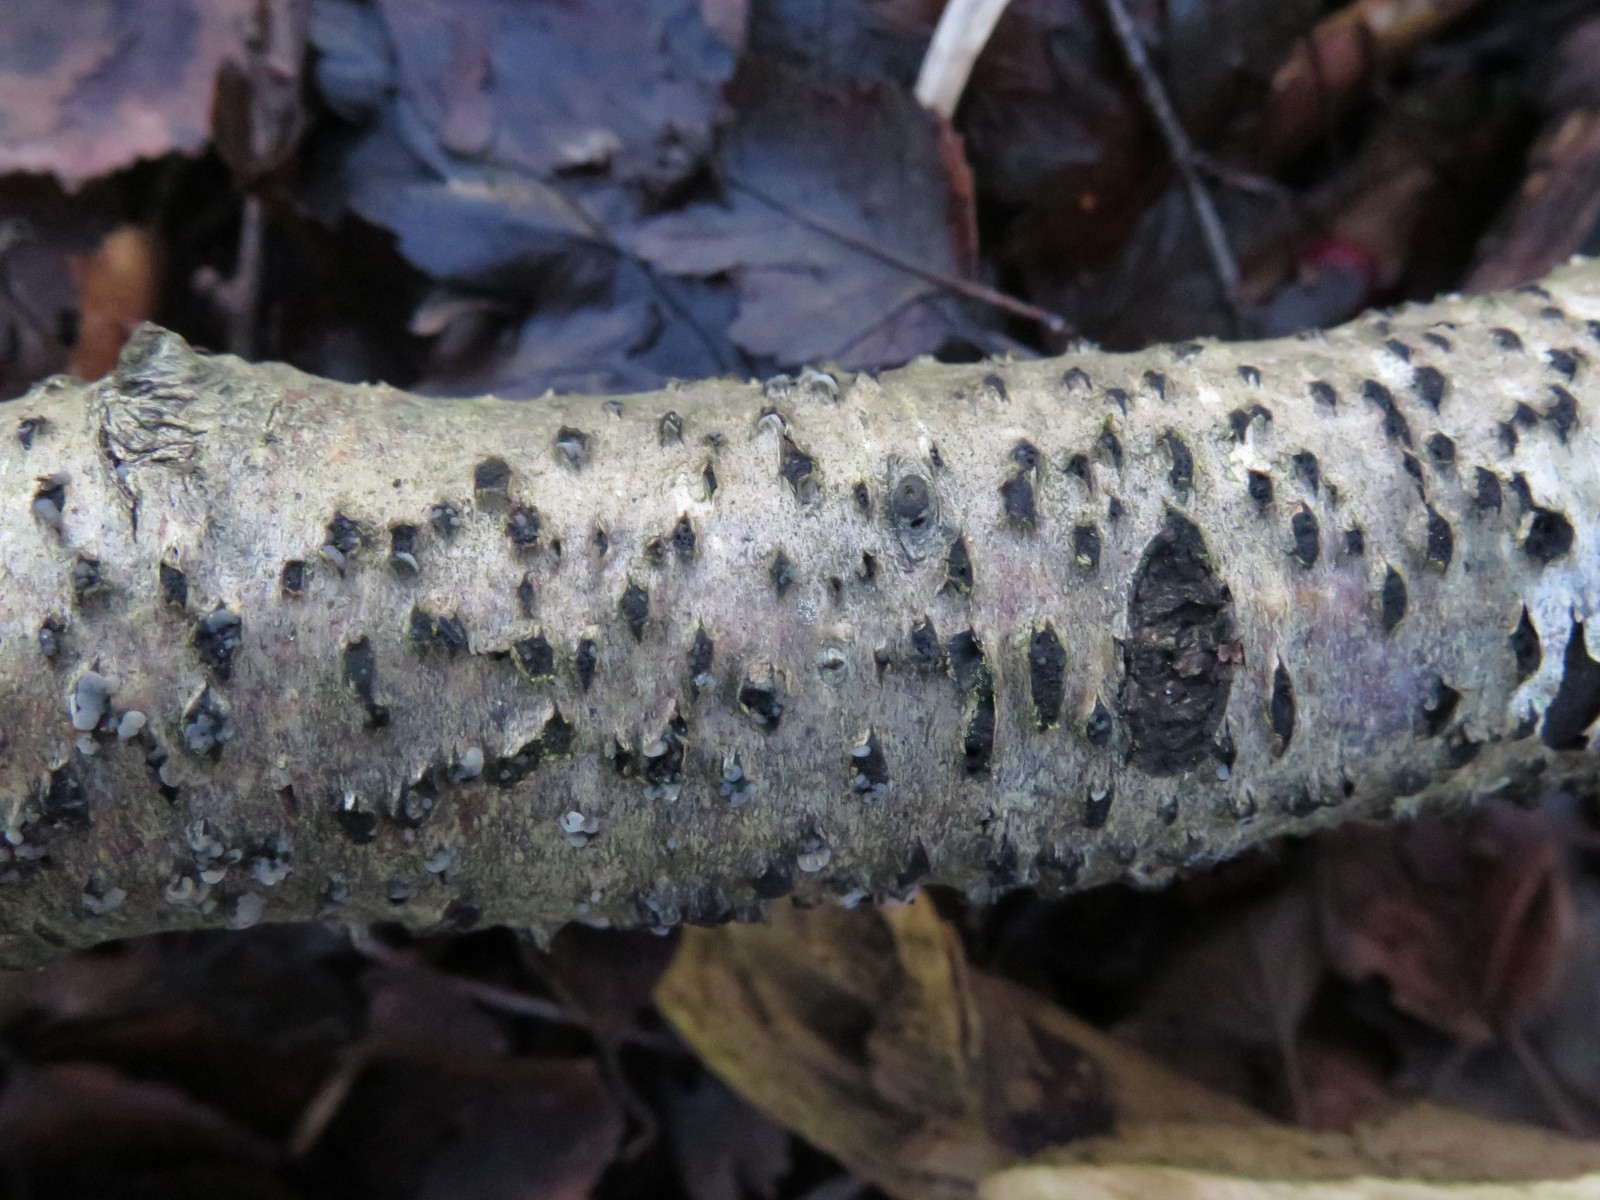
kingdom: Fungi
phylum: Ascomycota
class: Sordariomycetes
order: Xylariales
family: Diatrypaceae
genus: Diatrypella
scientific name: Diatrypella favacea
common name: Birch blackhead
